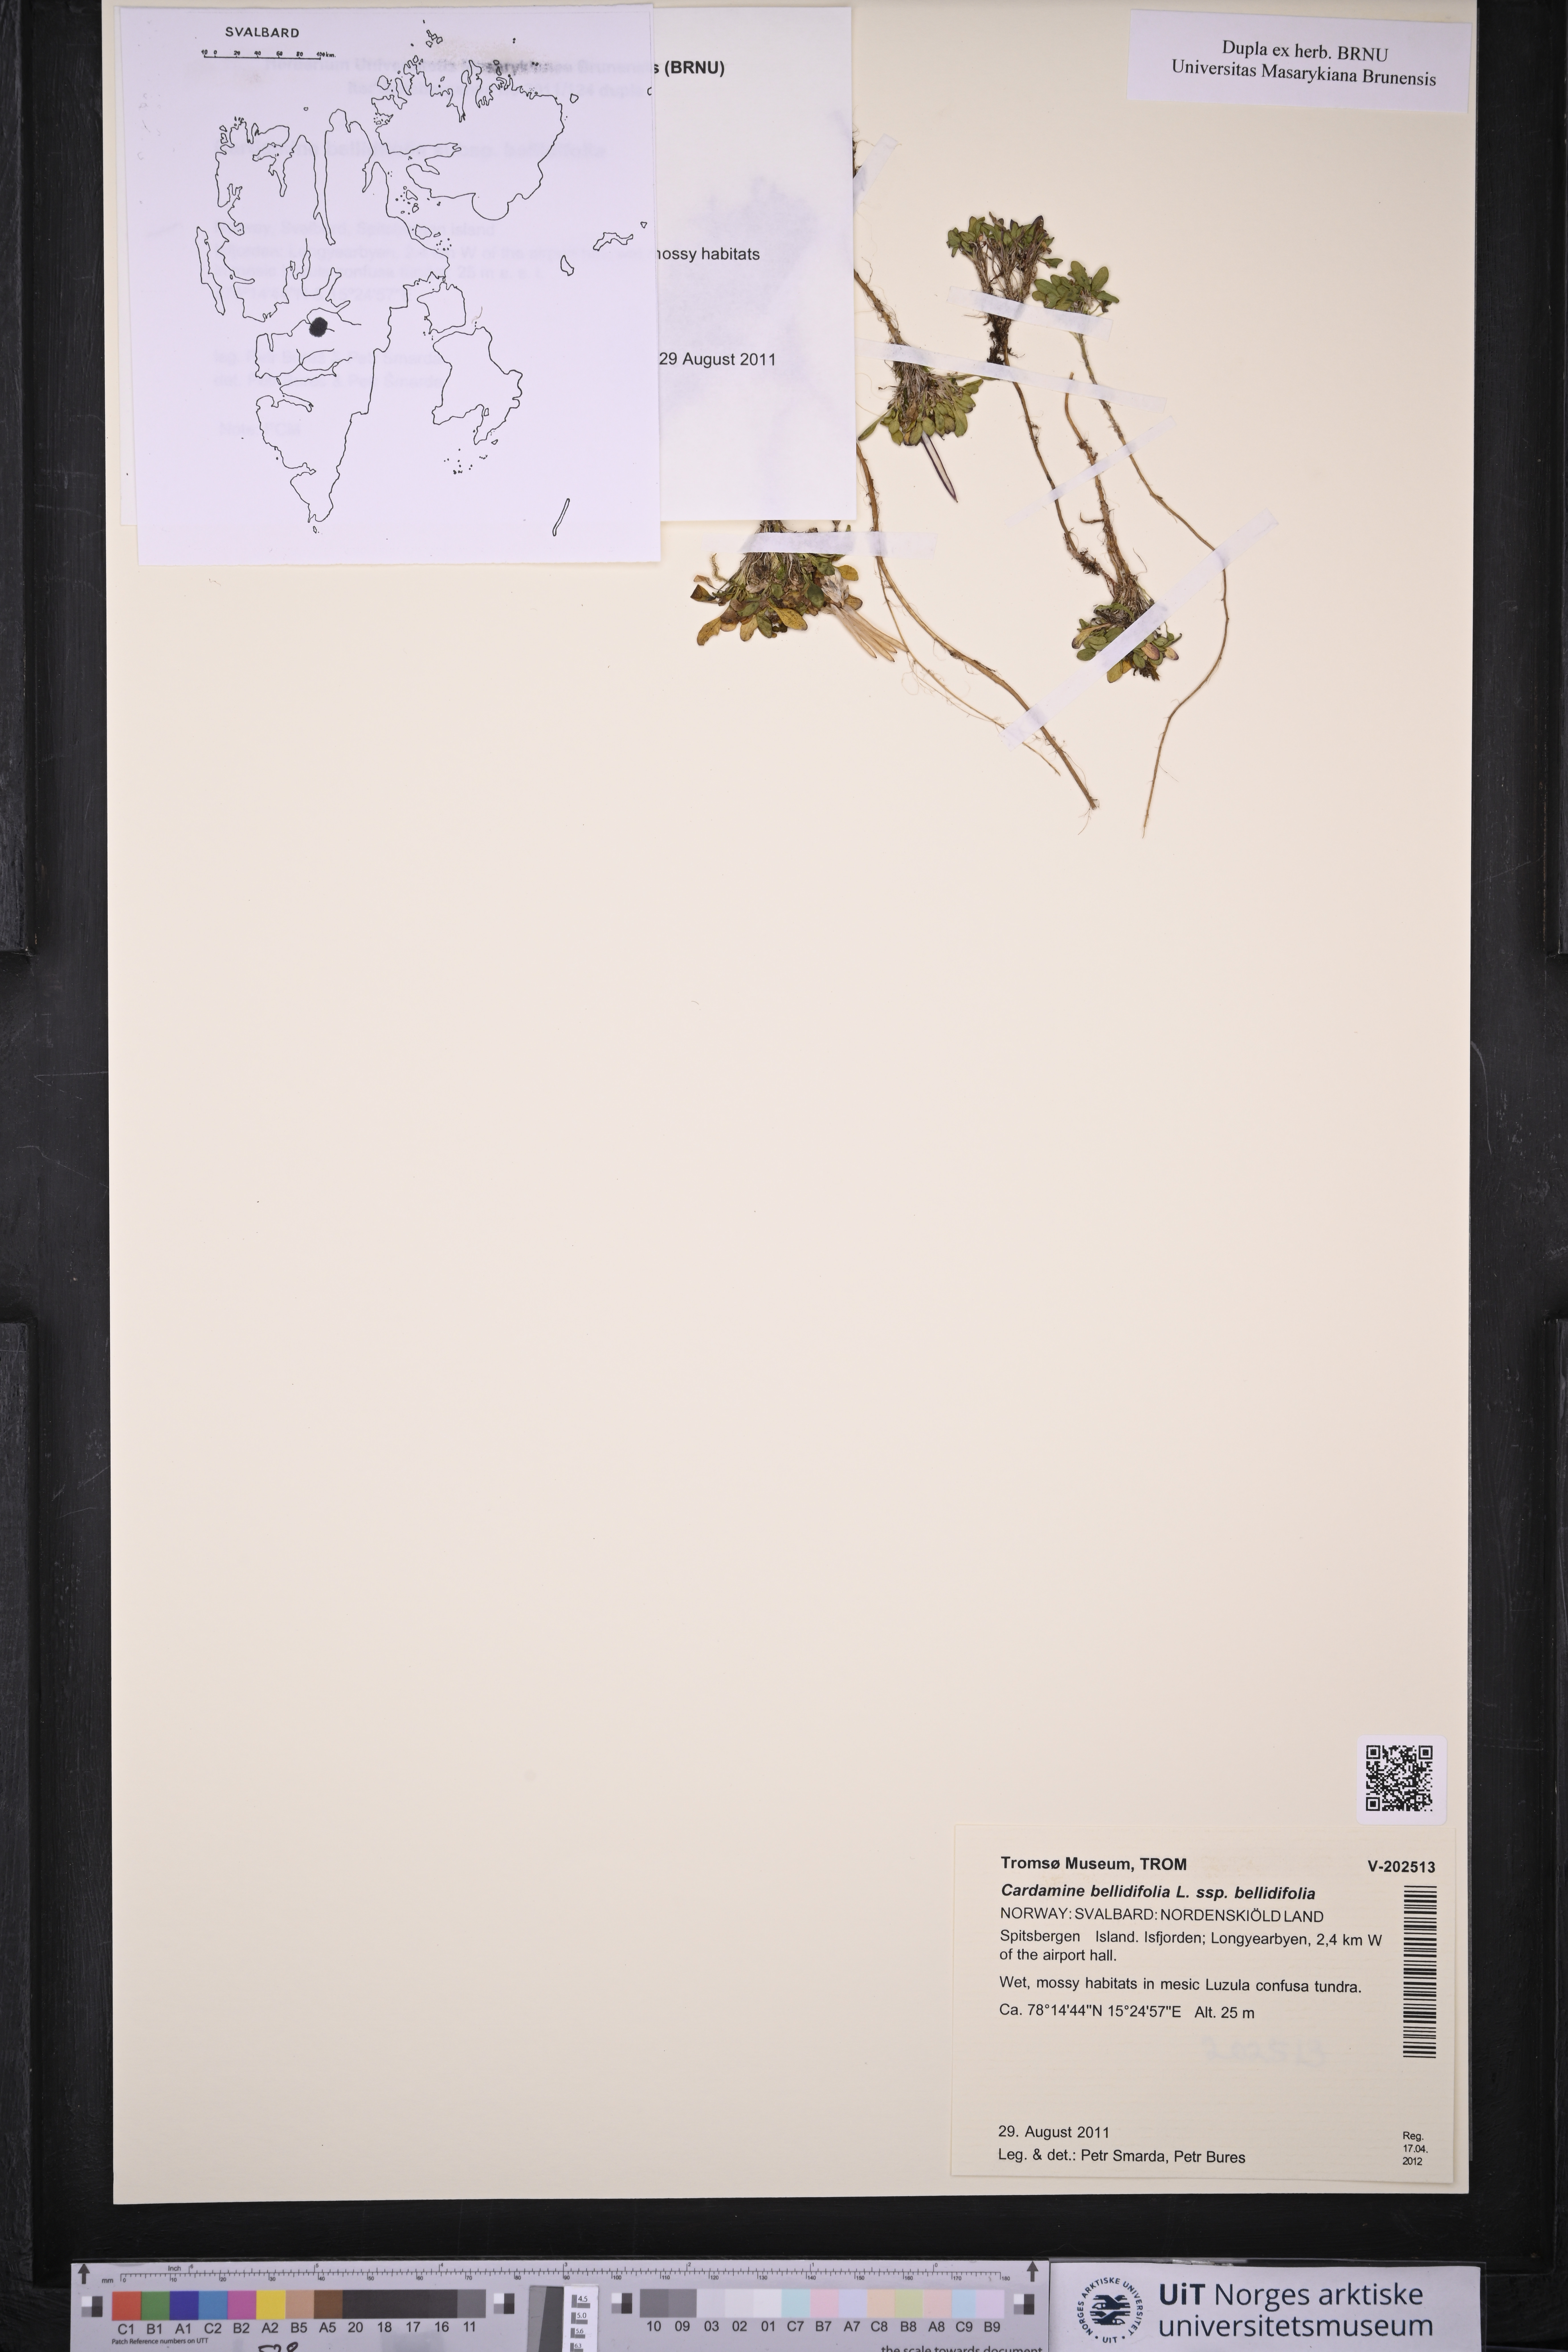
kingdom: Plantae
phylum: Tracheophyta
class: Magnoliopsida
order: Brassicales
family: Brassicaceae
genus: Cardamine
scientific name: Cardamine bellidifolia
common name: Alpine bittercress
